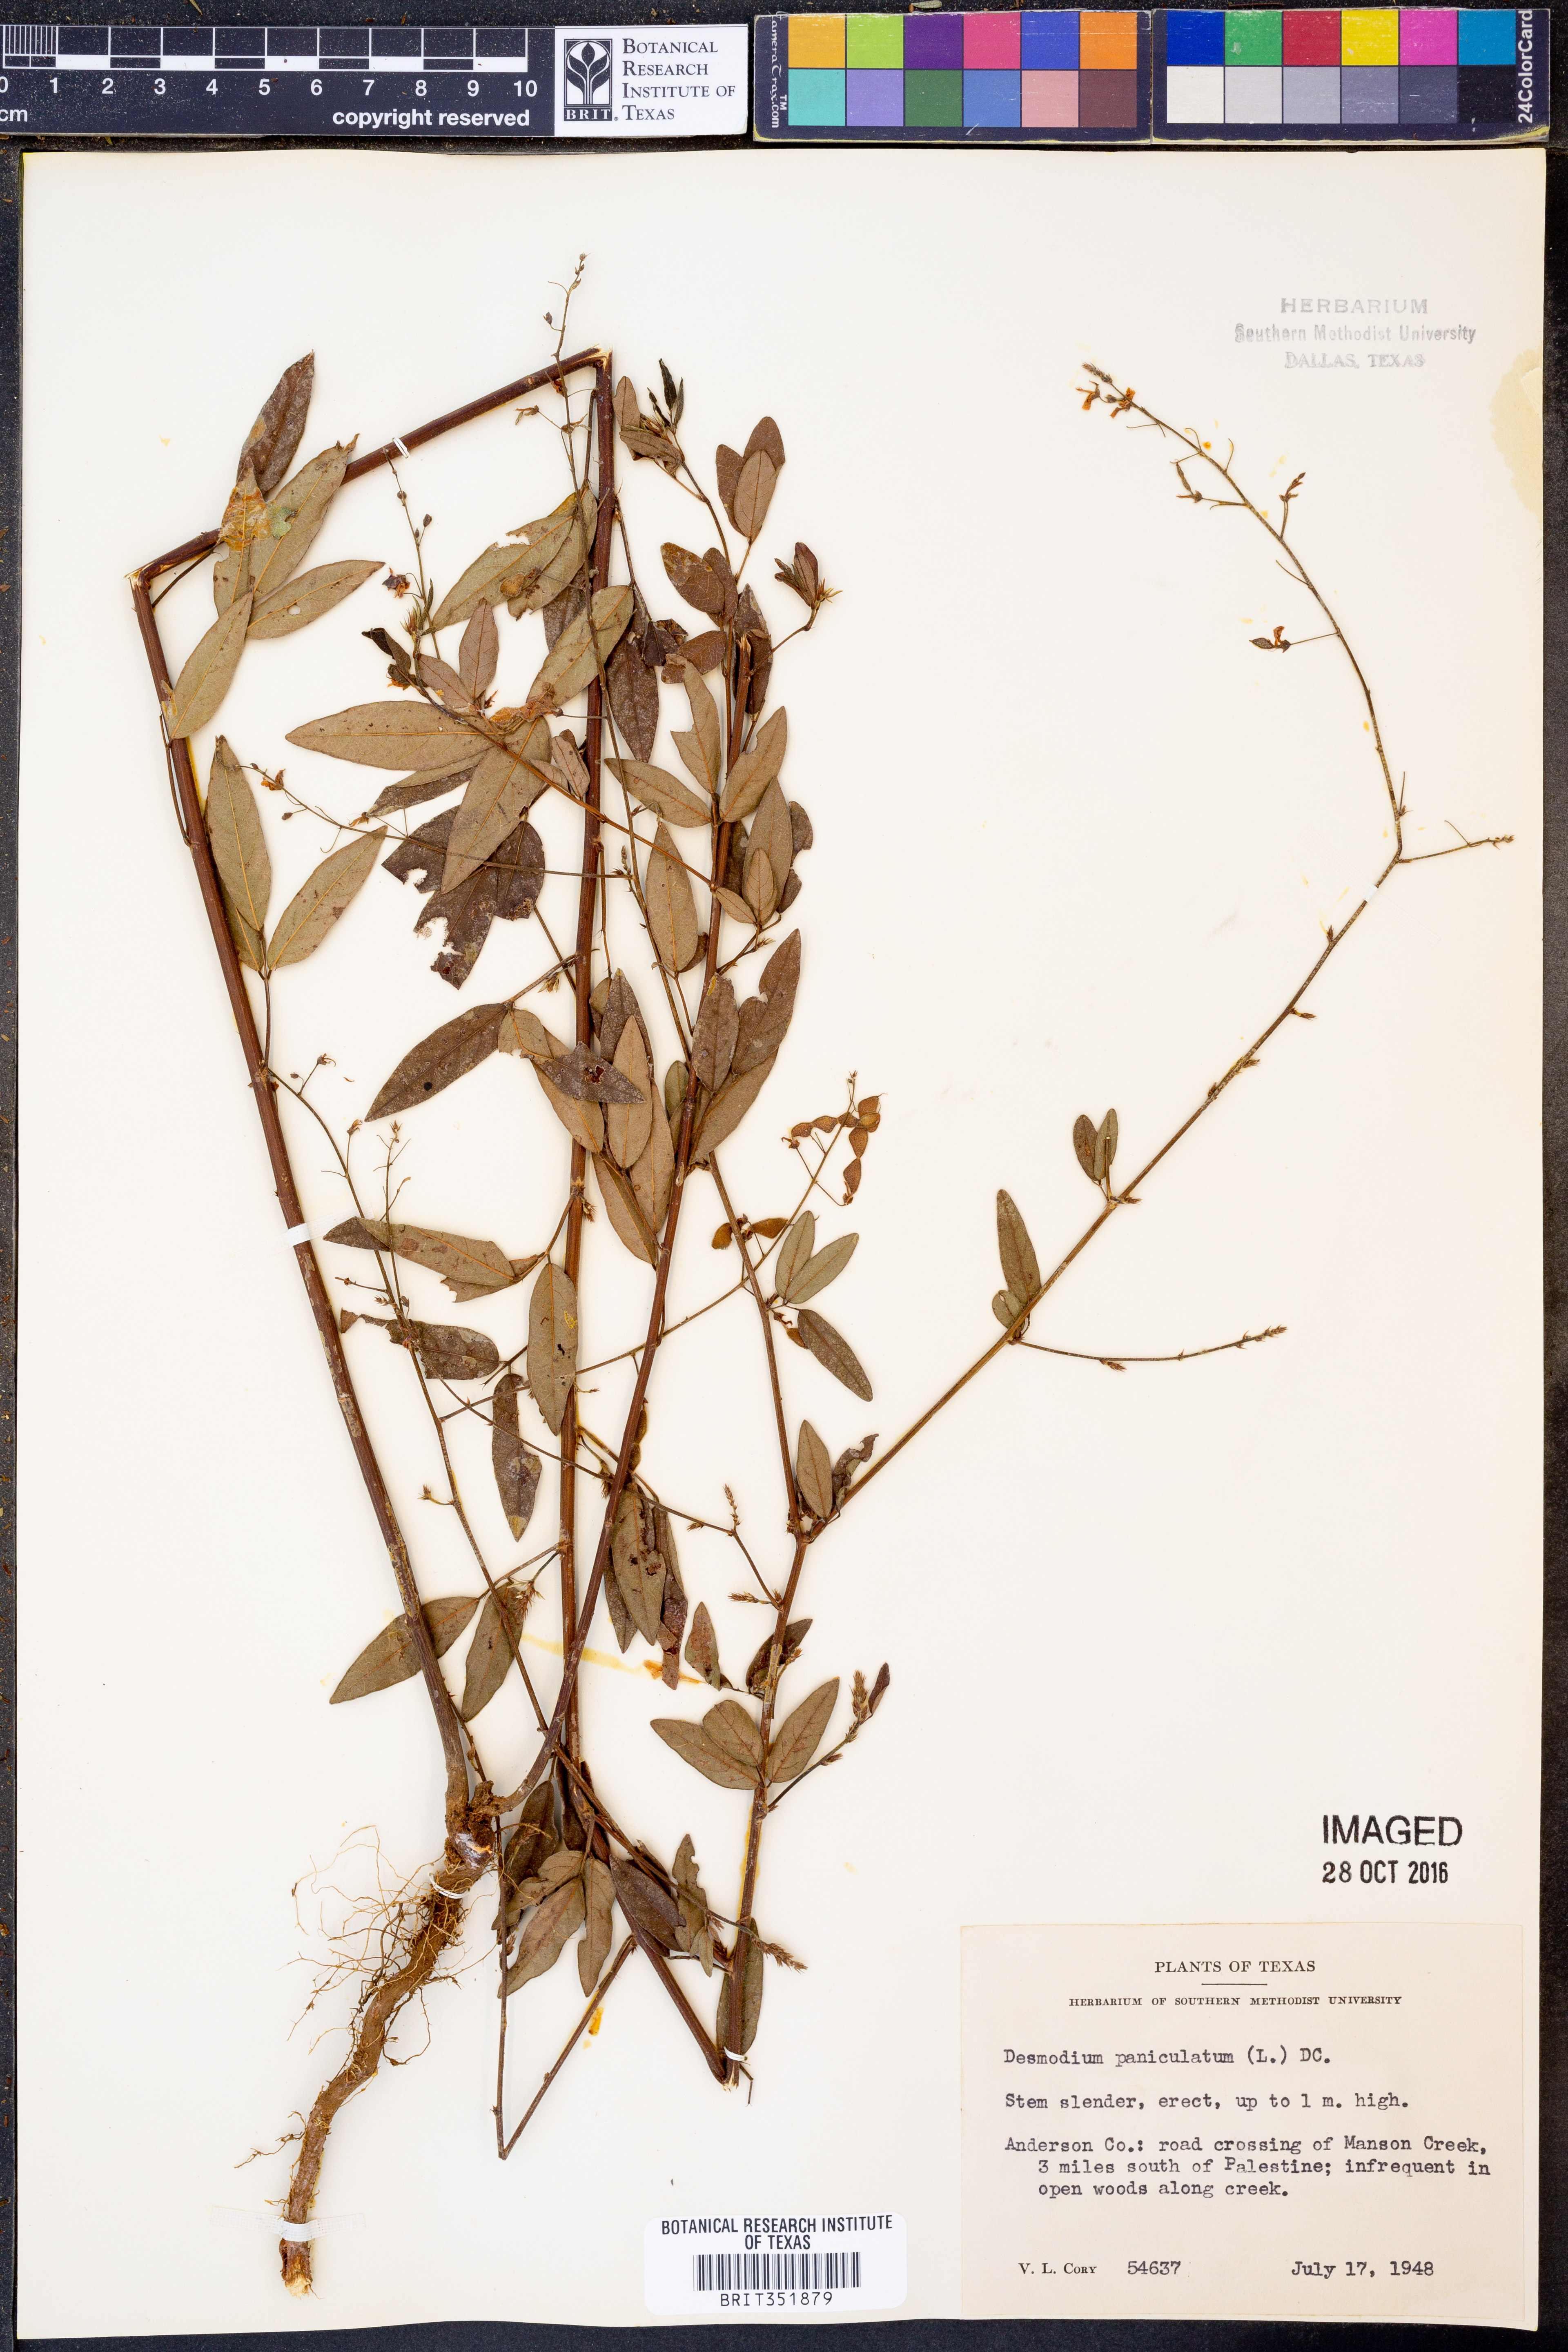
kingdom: Plantae
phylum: Tracheophyta
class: Magnoliopsida
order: Fabales
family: Fabaceae
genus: Desmodium
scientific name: Desmodium paniculatum
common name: Panicled tick-clover
